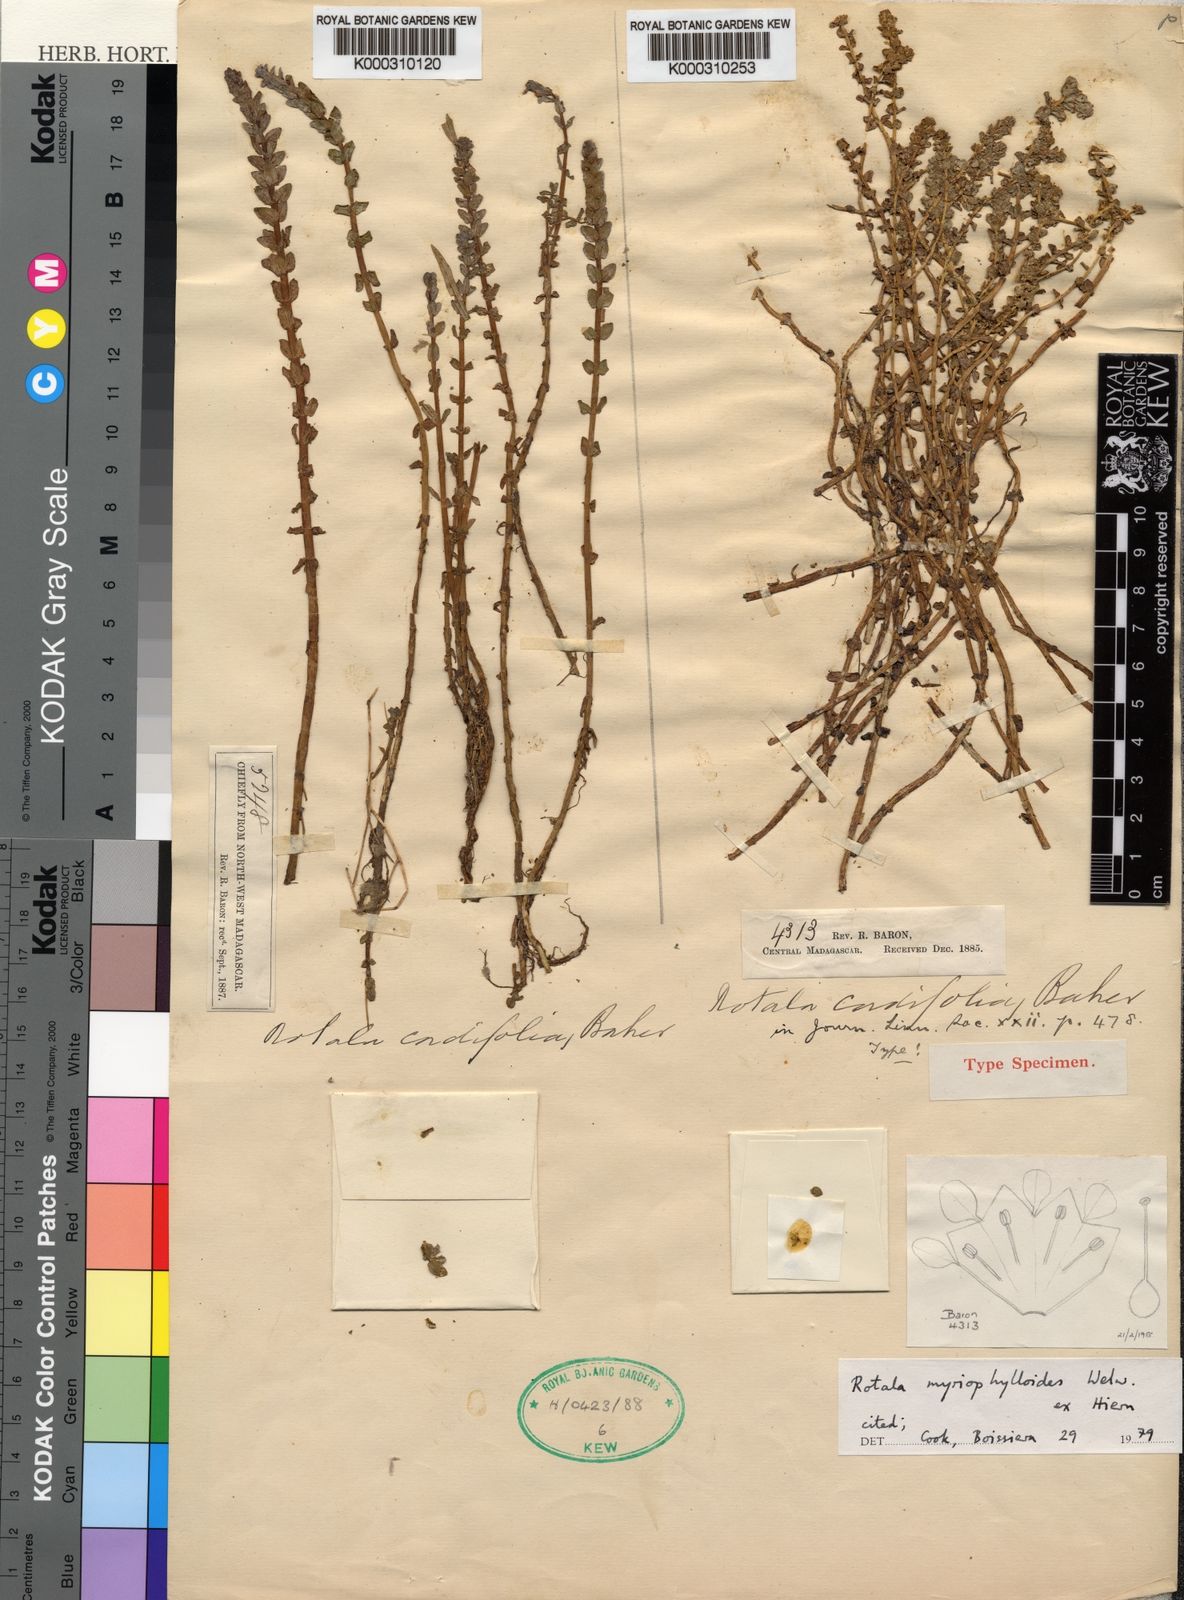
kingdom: Plantae
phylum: Tracheophyta
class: Magnoliopsida
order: Myrtales
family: Lythraceae
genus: Rotala
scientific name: Rotala myriophylloides
